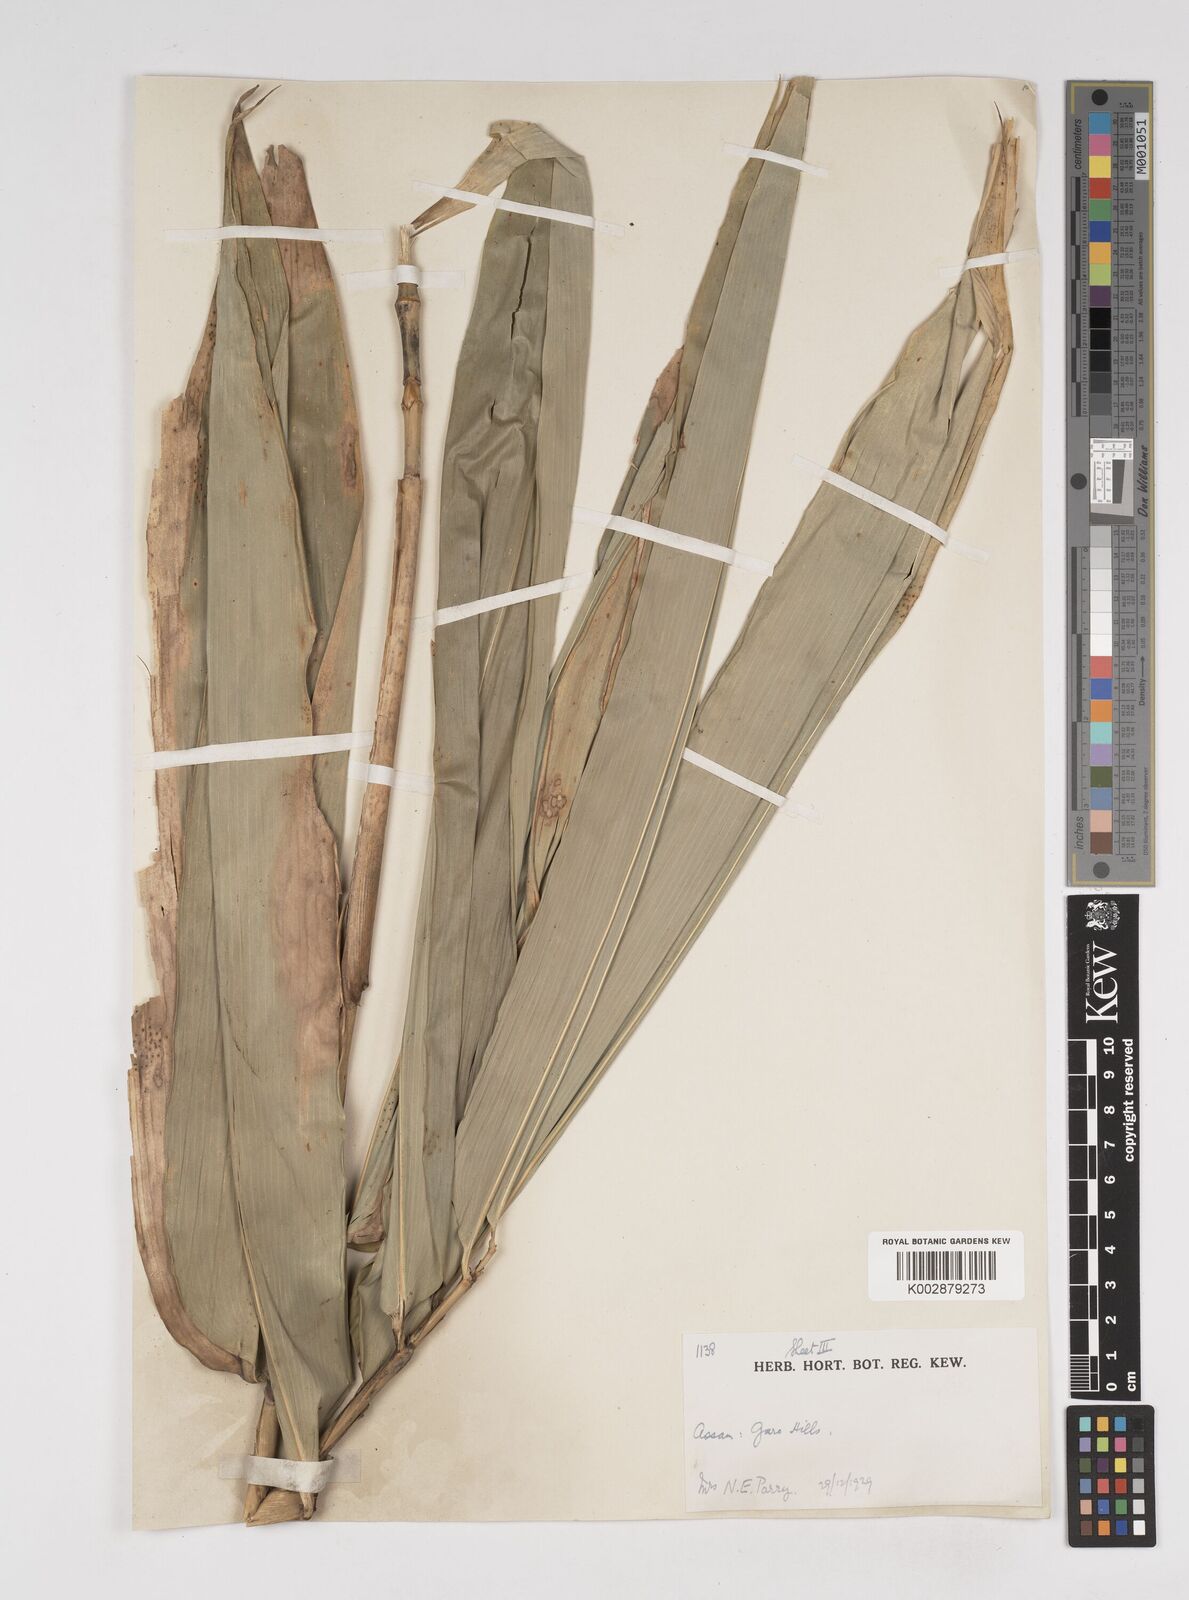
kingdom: Plantae
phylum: Tracheophyta
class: Liliopsida
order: Poales
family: Poaceae
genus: Dendrocalamus
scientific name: Dendrocalamus
